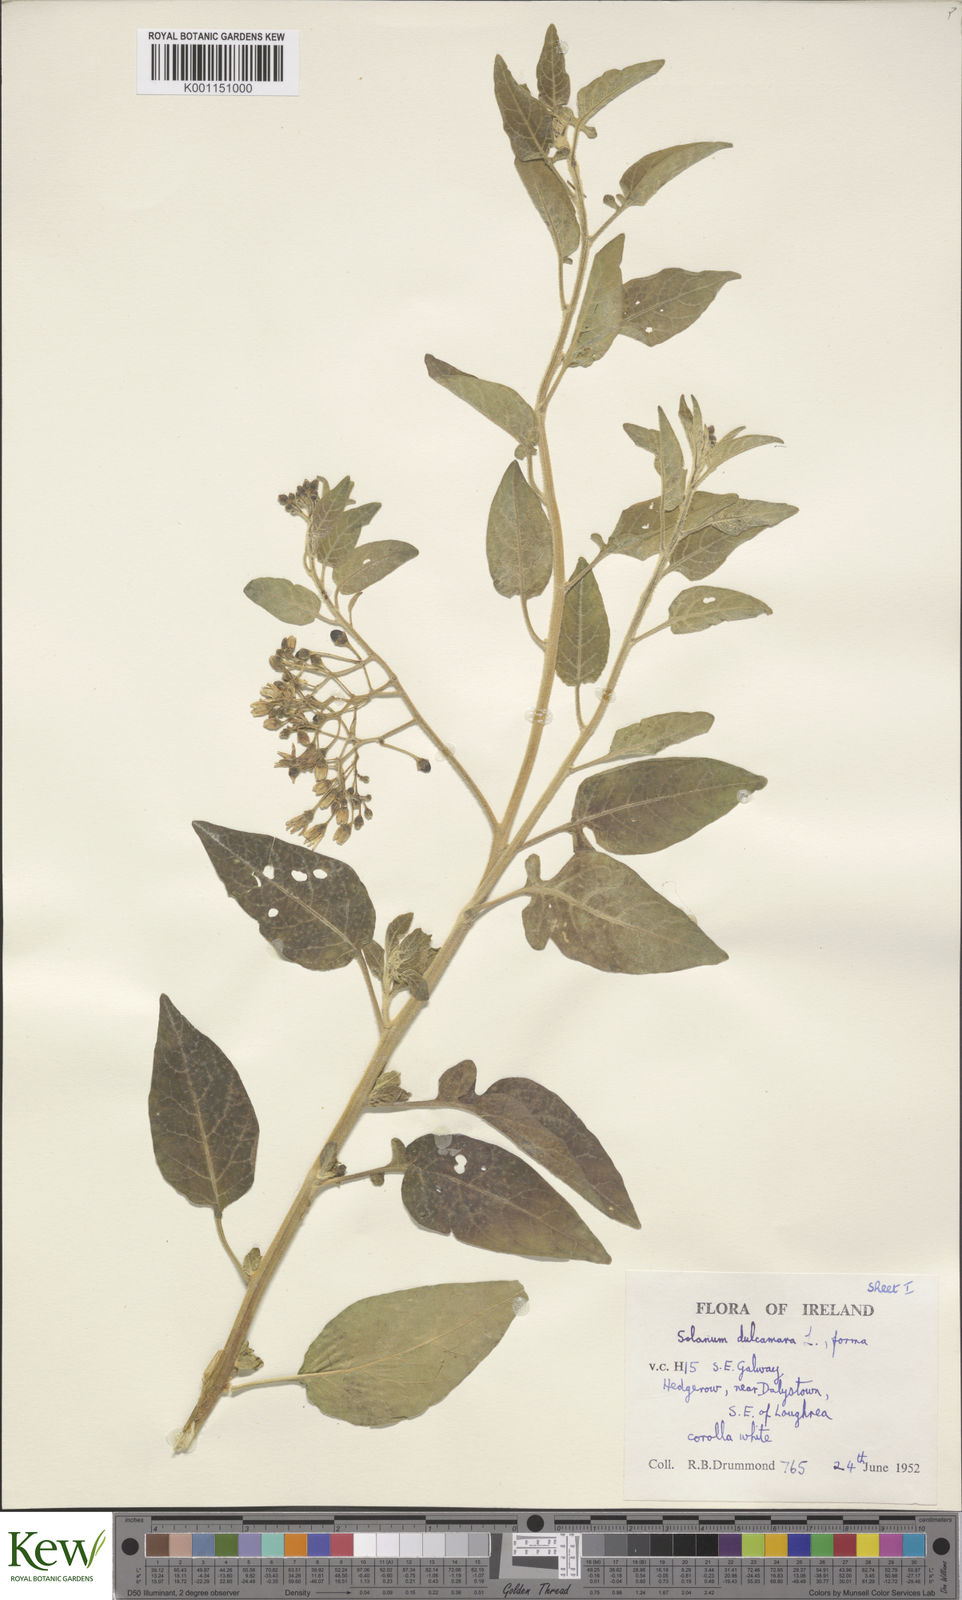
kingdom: Plantae
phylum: Tracheophyta
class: Magnoliopsida
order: Solanales
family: Solanaceae
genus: Solanum
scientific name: Solanum dulcamara
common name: Climbing nightshade
